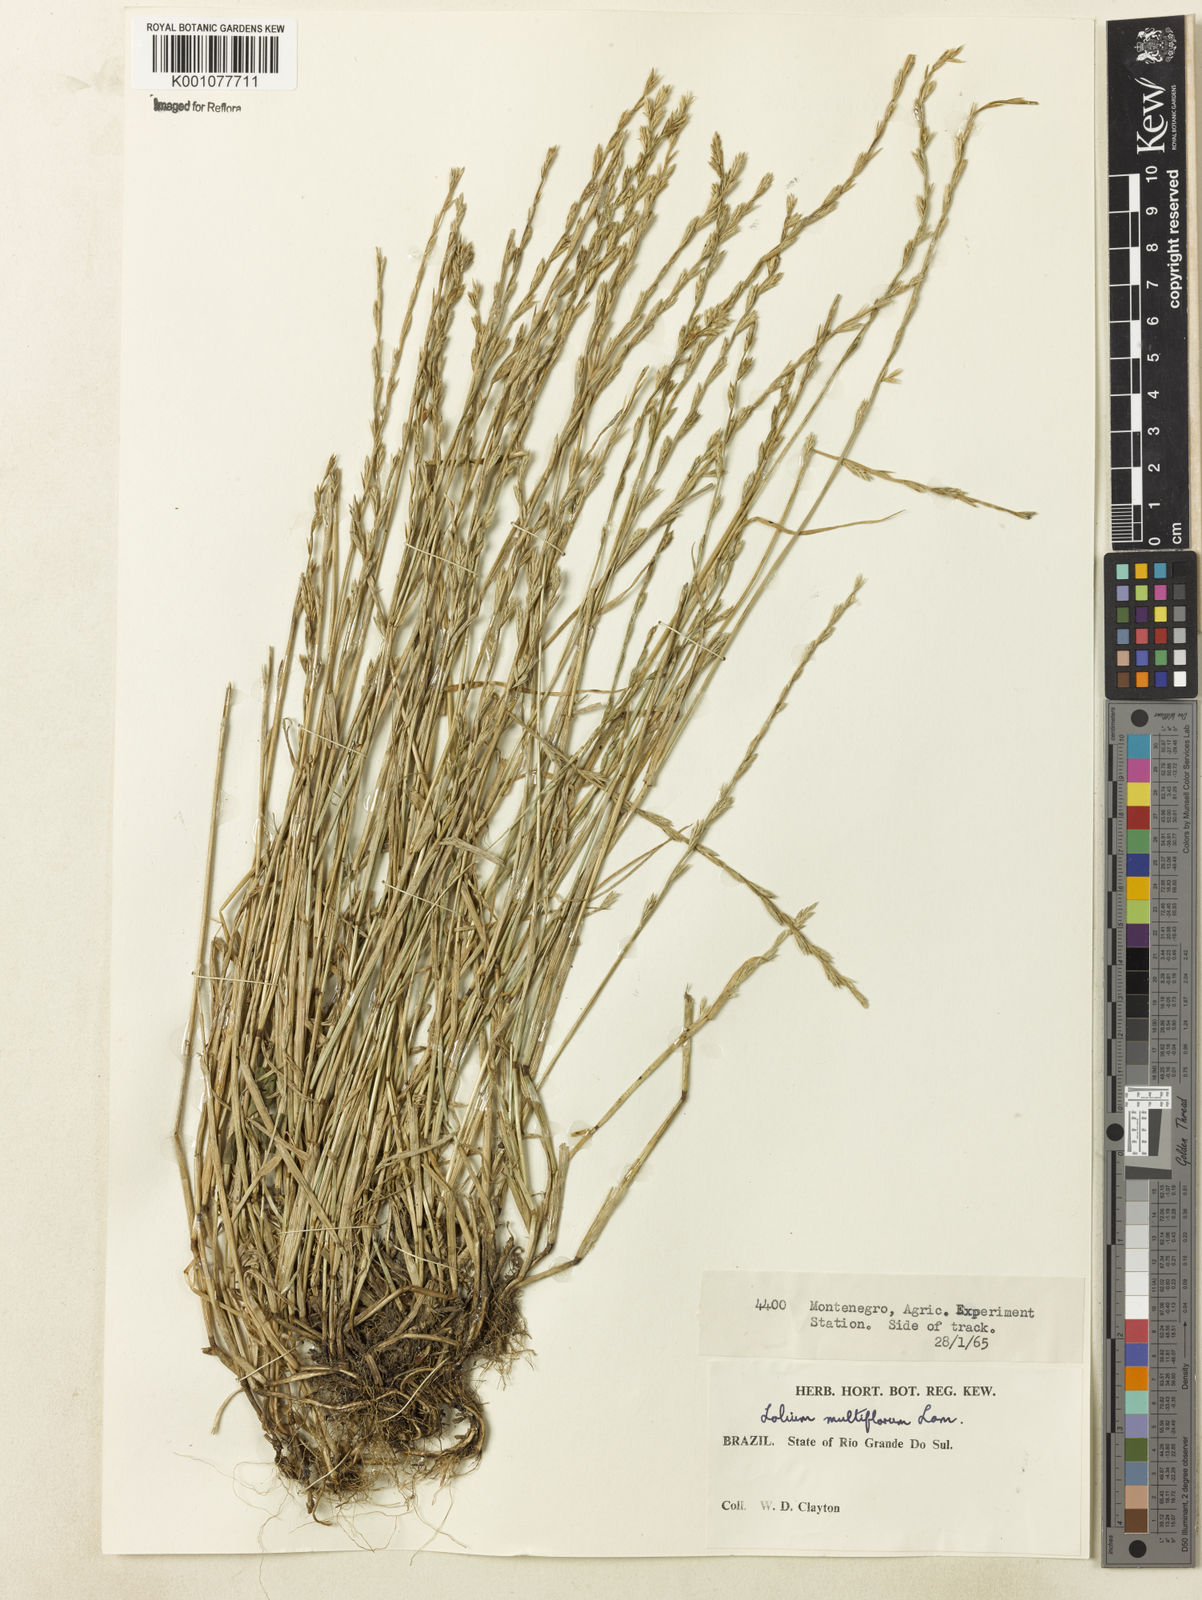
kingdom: Plantae
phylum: Tracheophyta
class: Liliopsida
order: Poales
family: Poaceae
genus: Lolium
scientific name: Lolium multiflorum
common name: Annual ryegrass
